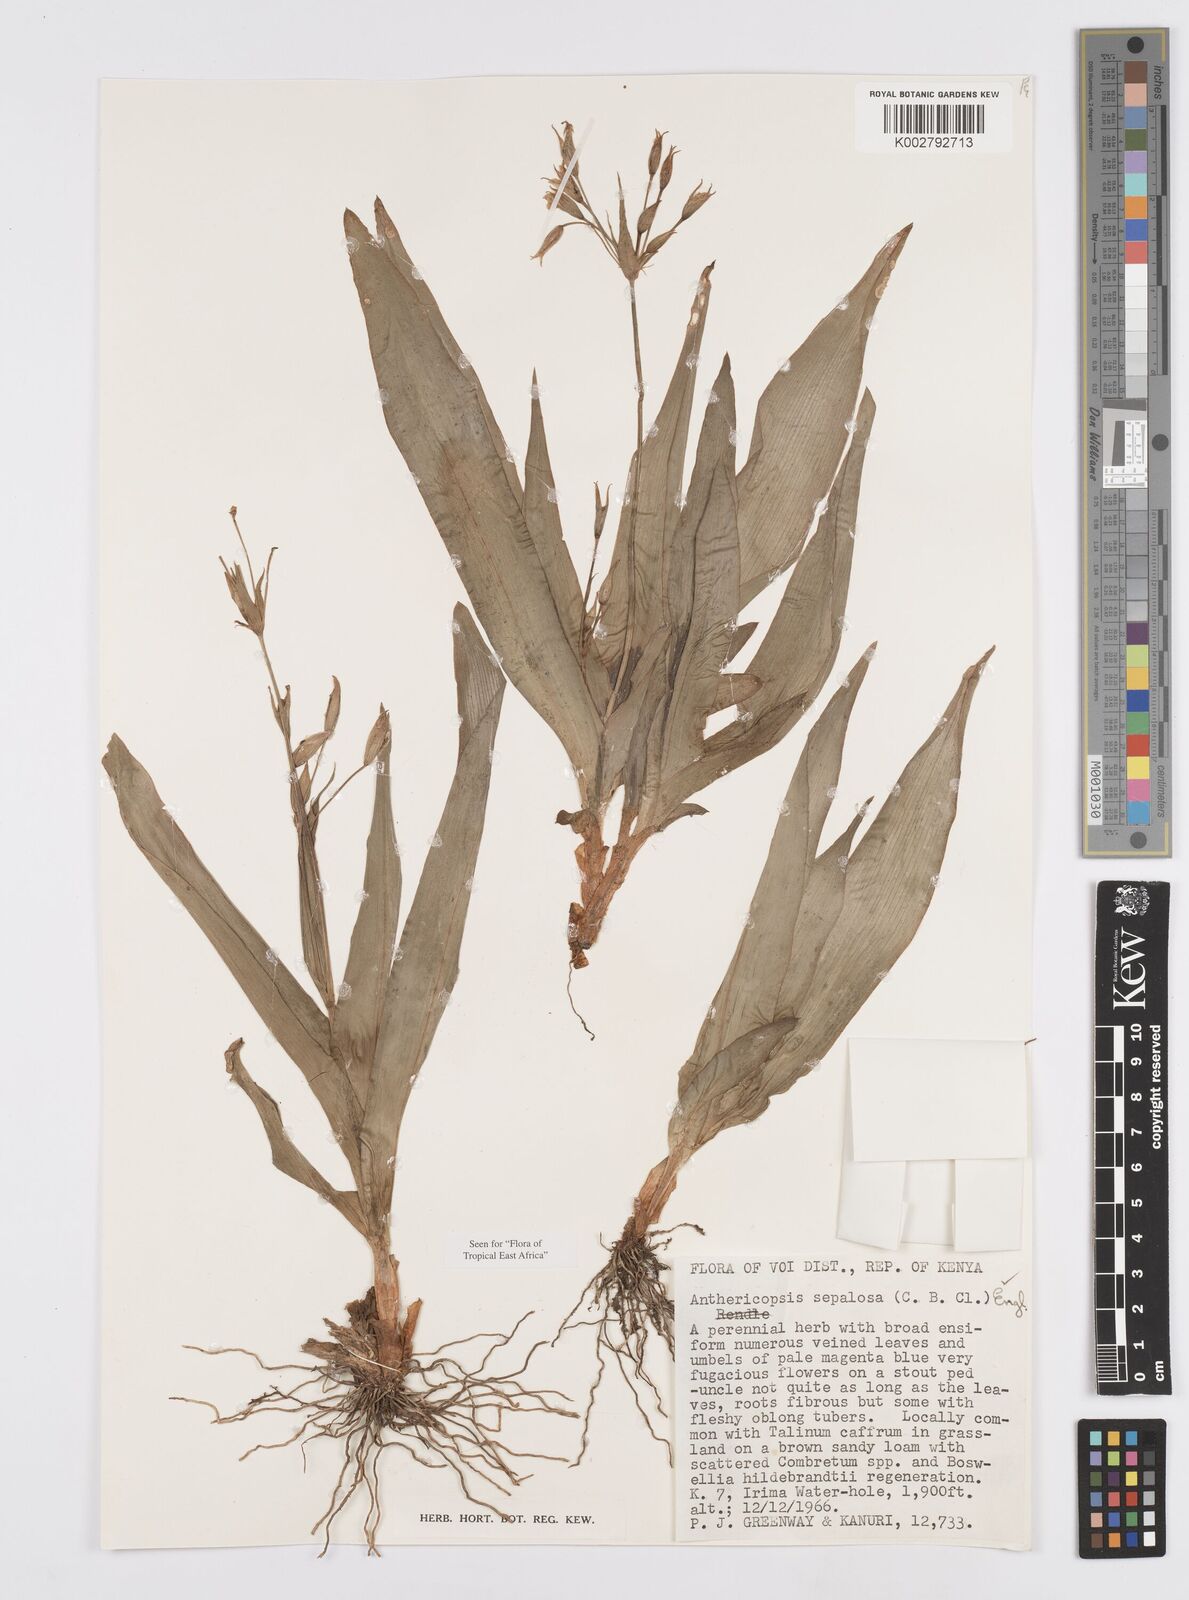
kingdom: Plantae
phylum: Tracheophyta
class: Liliopsida
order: Commelinales
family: Commelinaceae
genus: Anthericopsis
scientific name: Anthericopsis sepalosa
